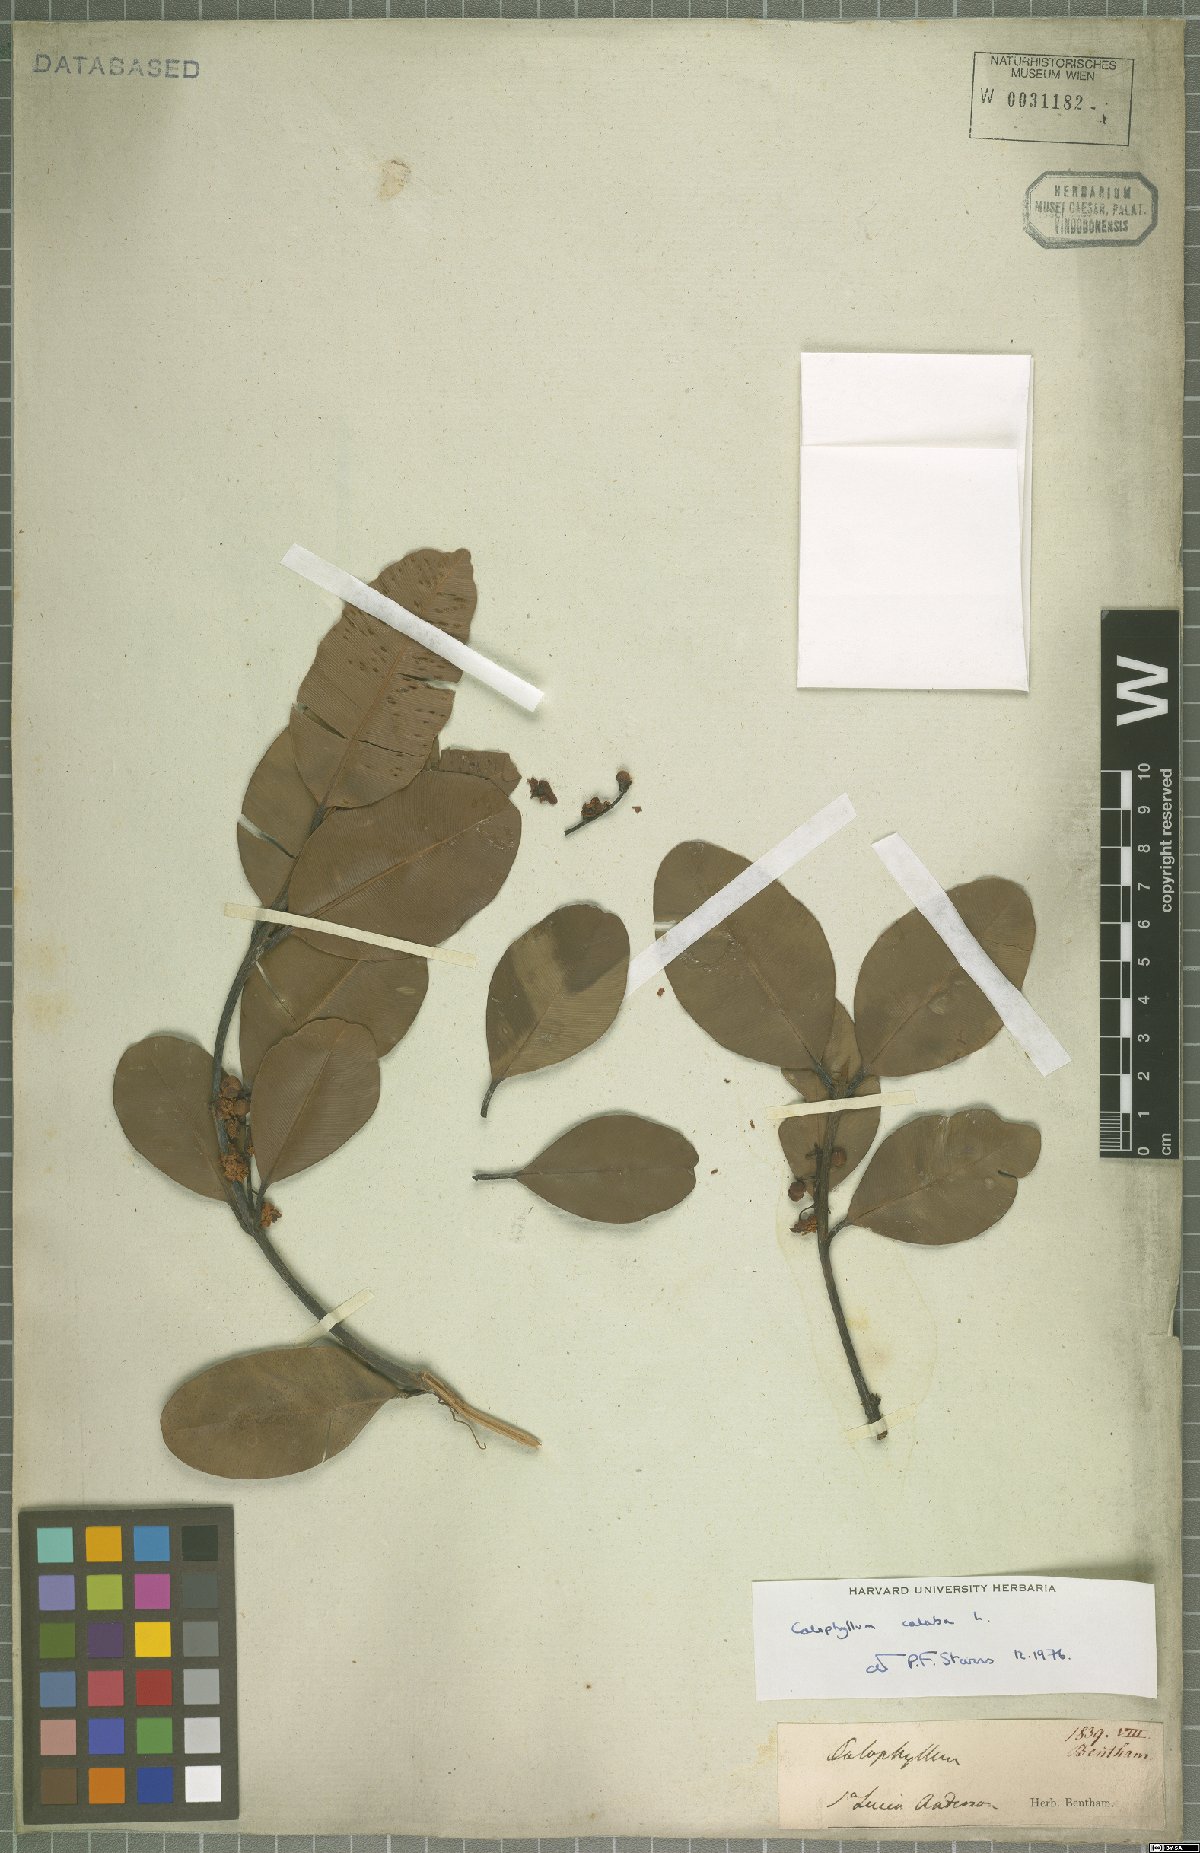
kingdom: Plantae
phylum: Tracheophyta
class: Magnoliopsida
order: Malpighiales
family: Calophyllaceae
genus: Calophyllum
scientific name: Calophyllum calaba
